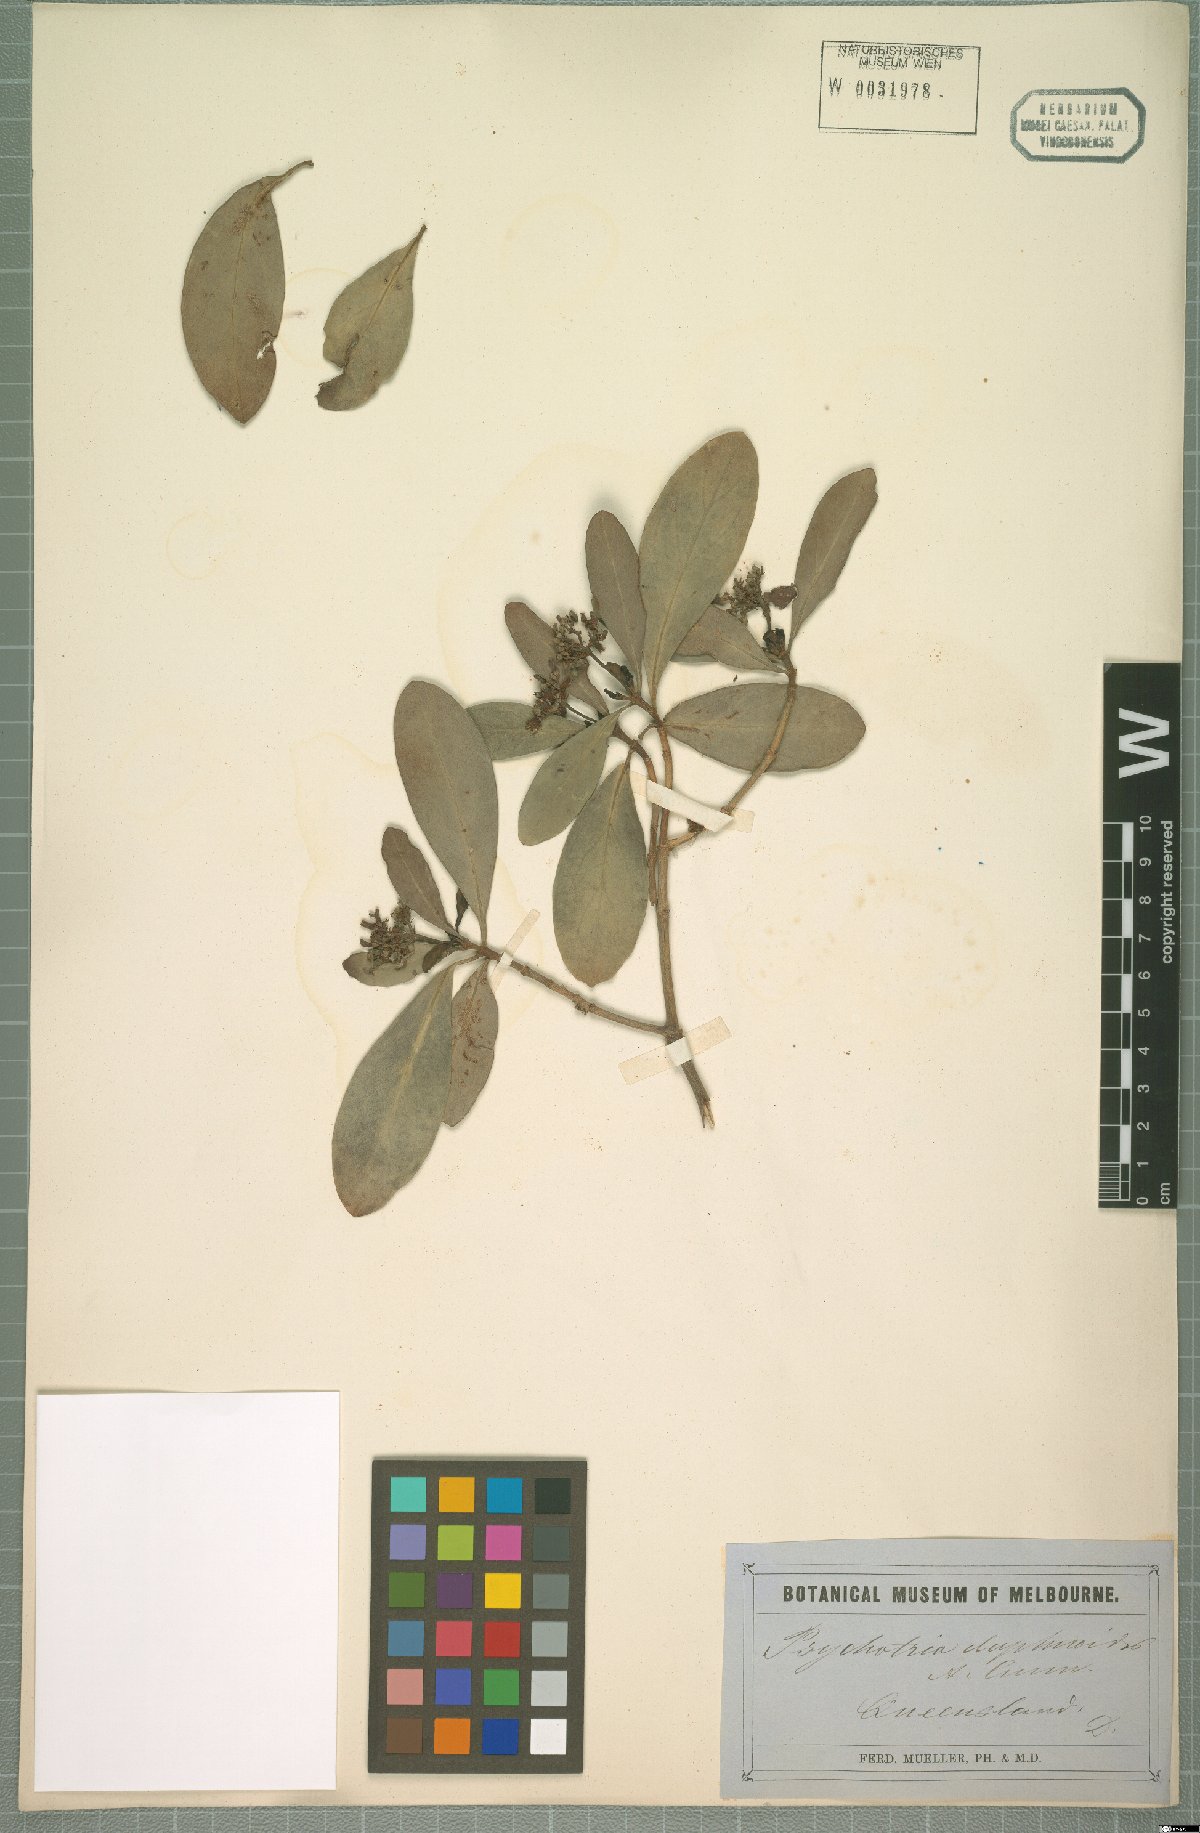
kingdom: Plantae
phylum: Tracheophyta
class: Magnoliopsida
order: Gentianales
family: Rubiaceae
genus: Psychotria
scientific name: Psychotria daphnoides
